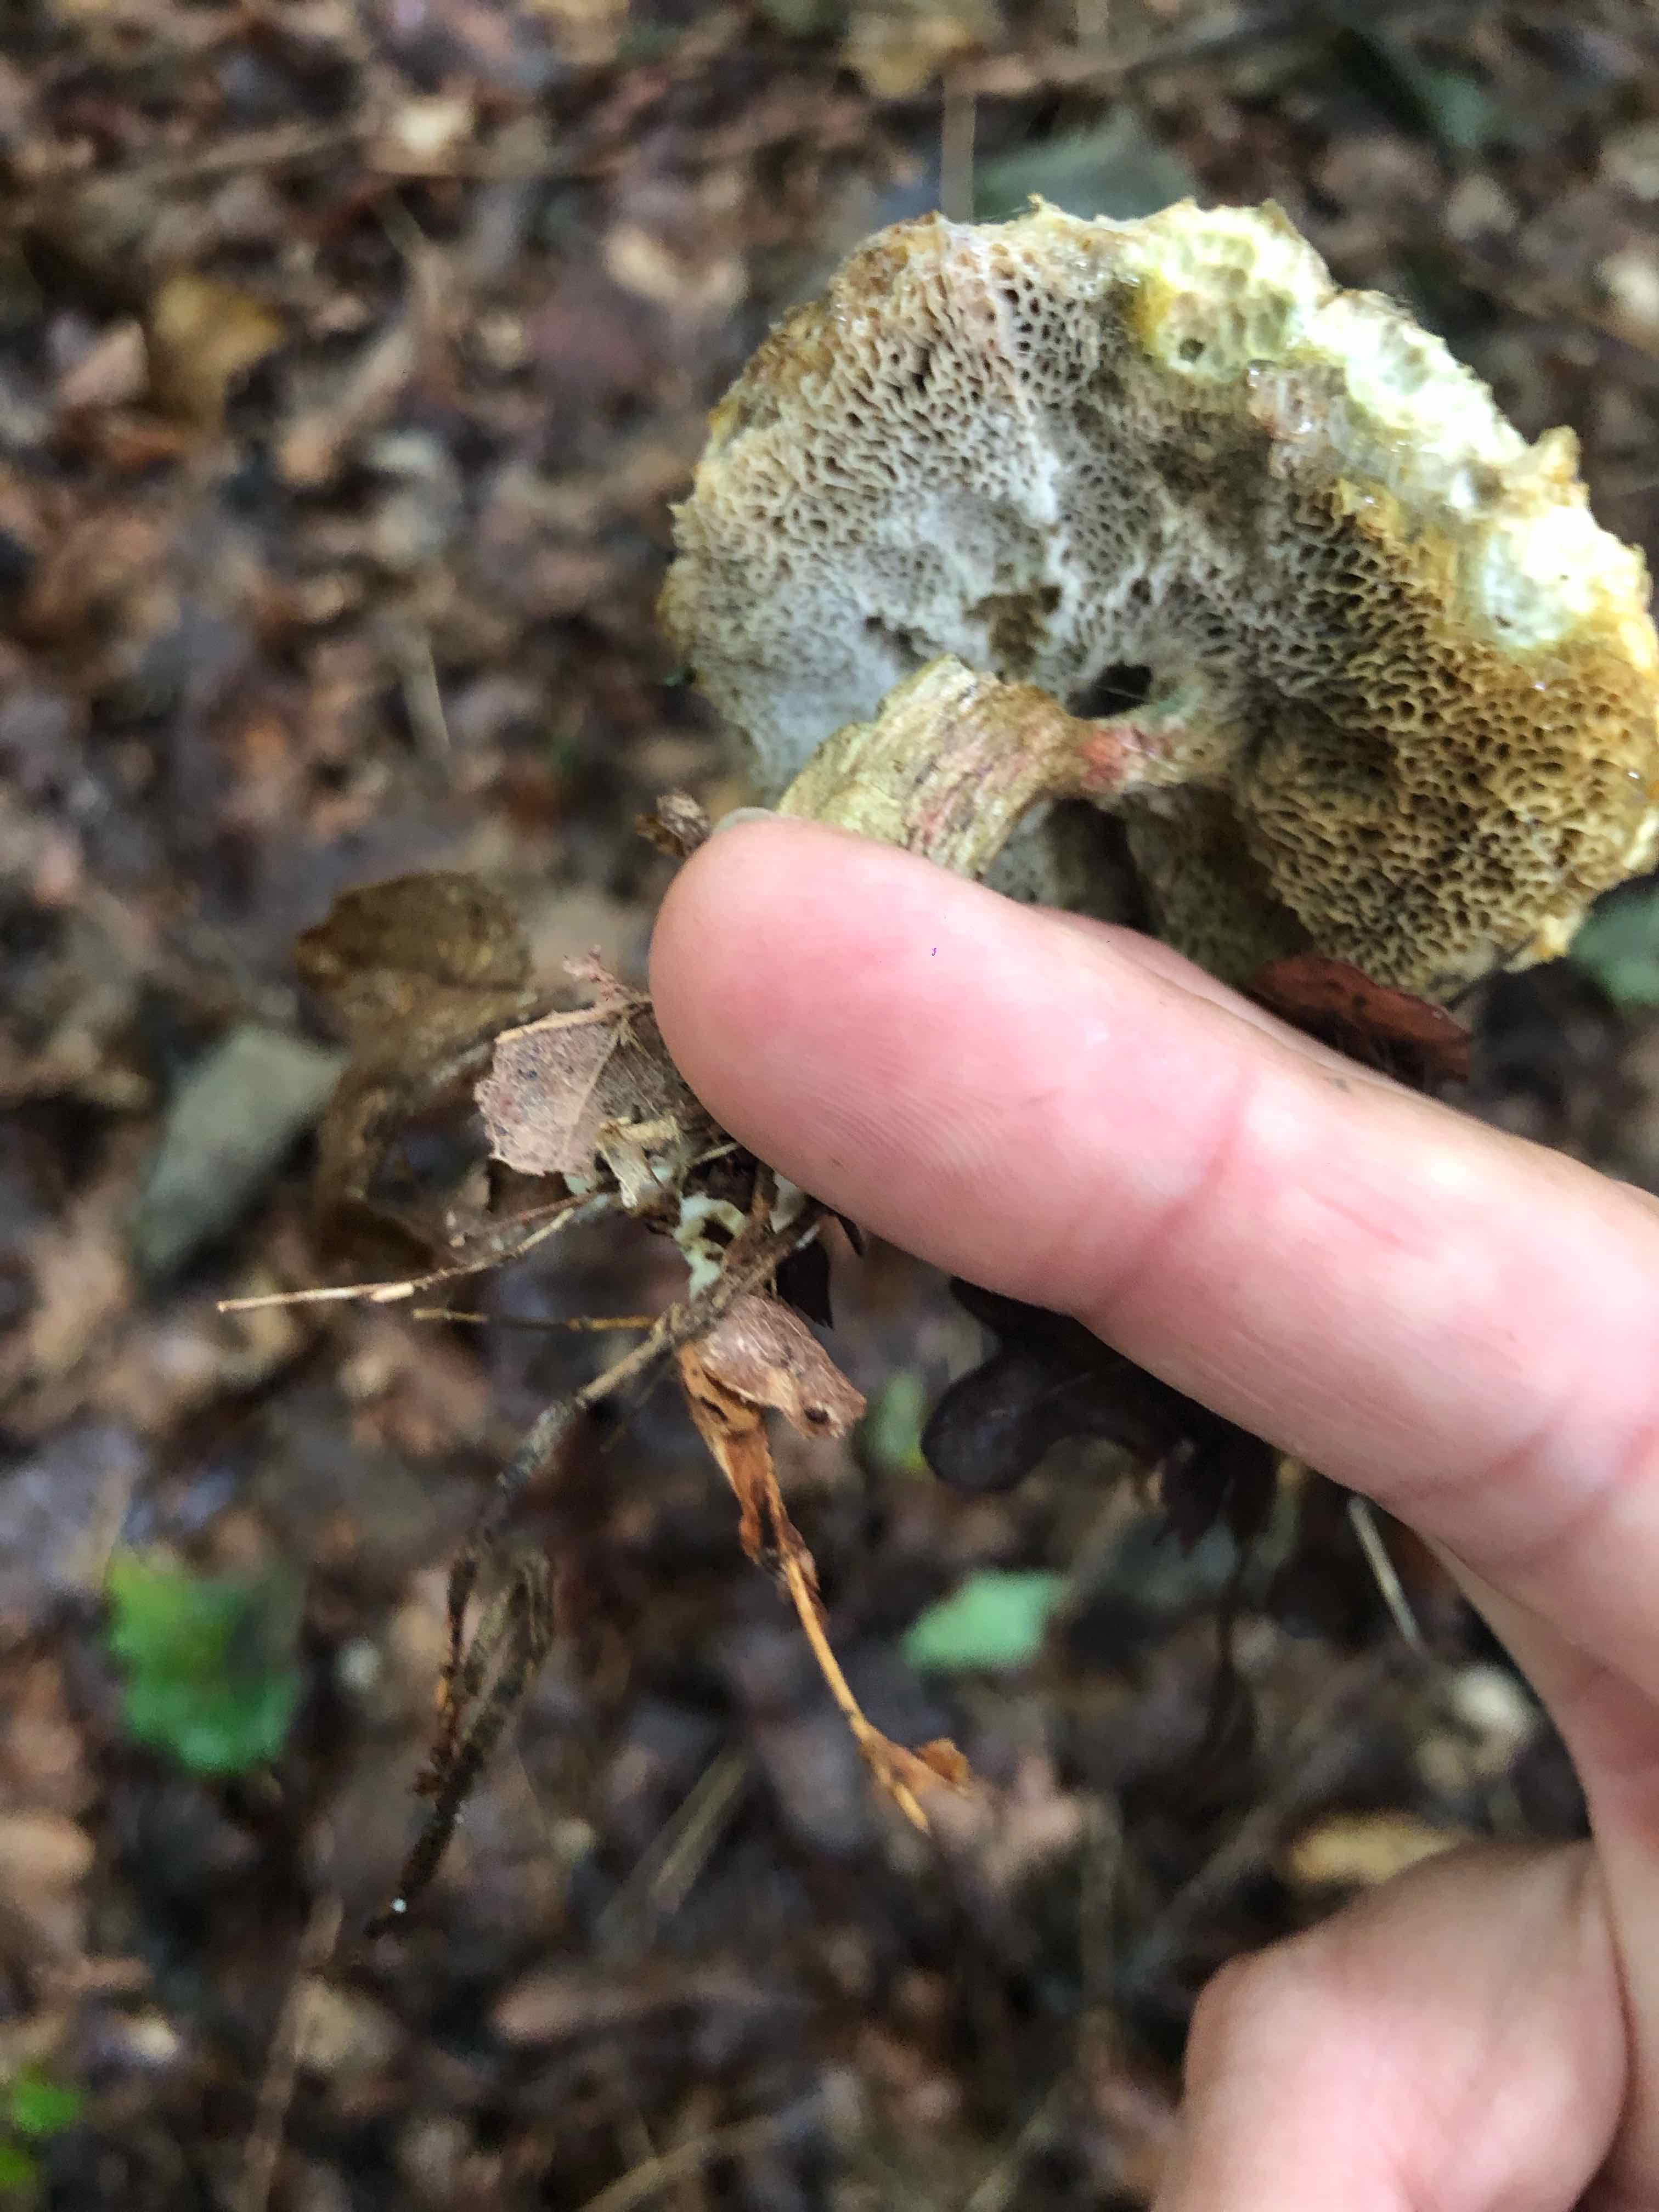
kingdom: Fungi
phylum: Basidiomycota
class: Agaricomycetes
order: Boletales
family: Boletaceae
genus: Xerocomellus
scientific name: Xerocomellus
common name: dværgrørhat
